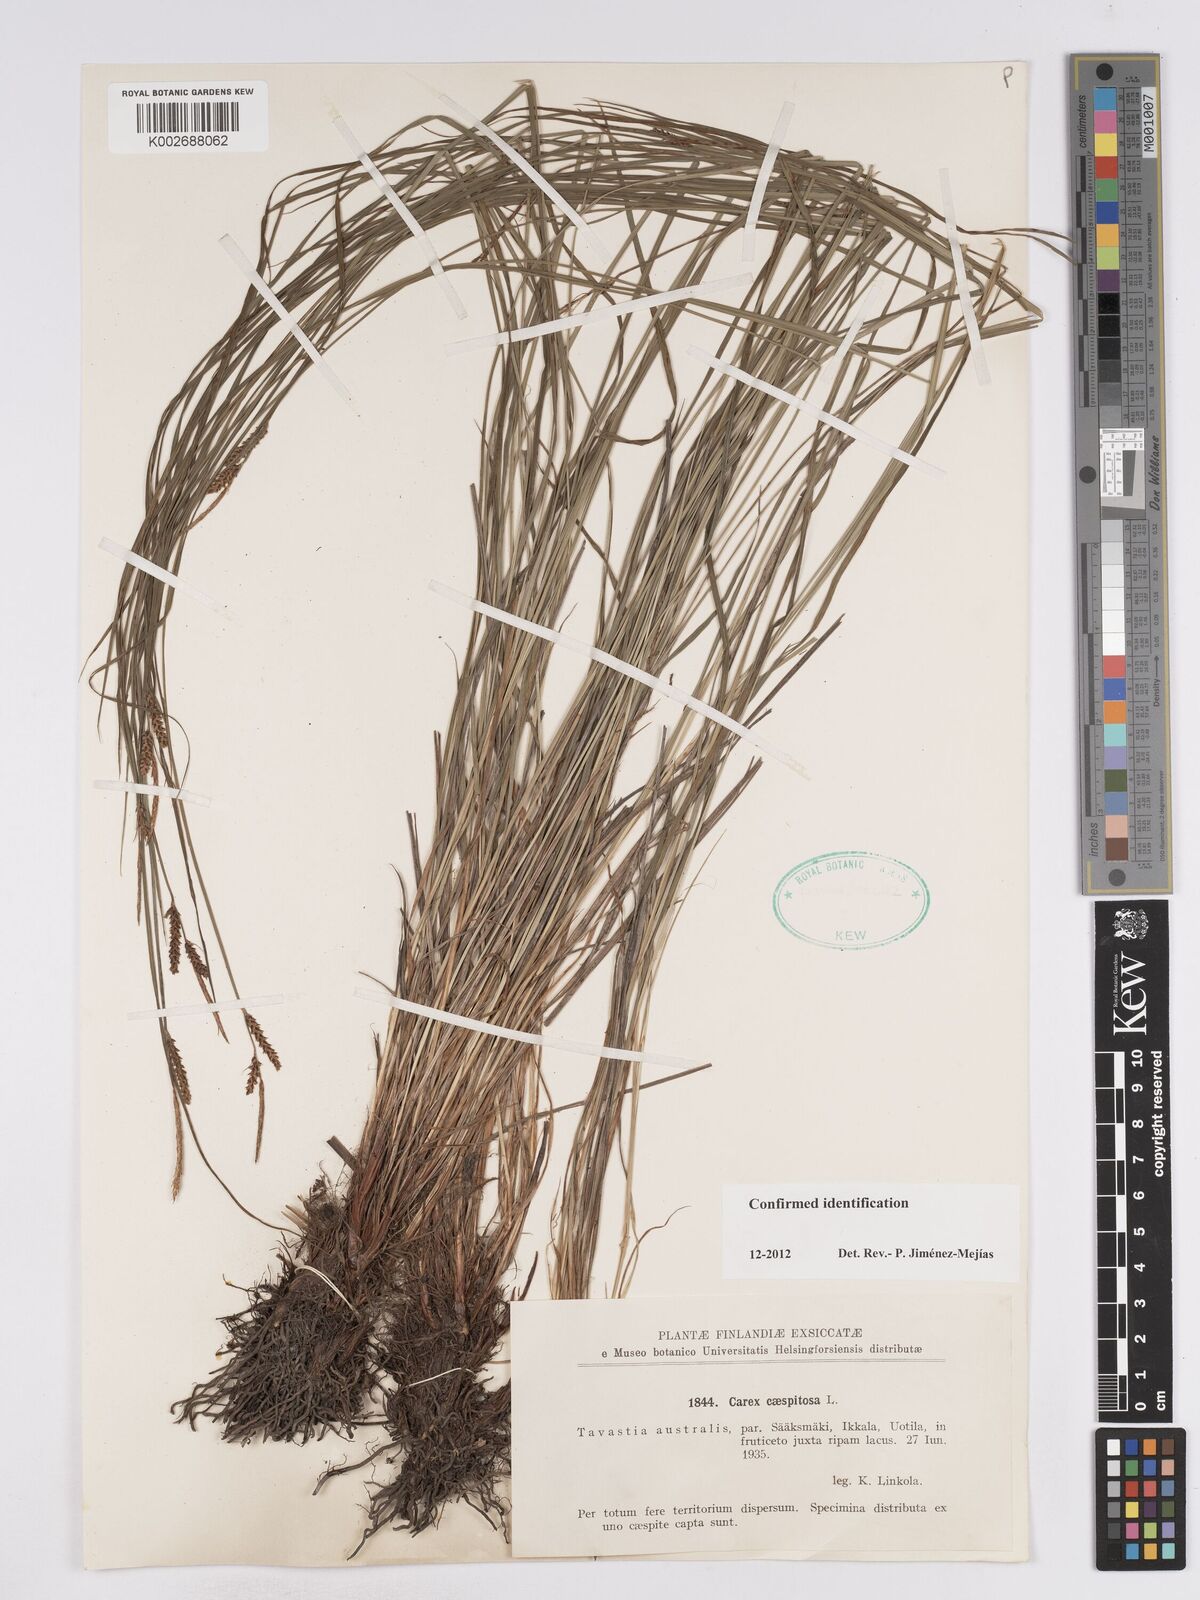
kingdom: Plantae
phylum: Tracheophyta
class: Liliopsida
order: Poales
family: Cyperaceae
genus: Carex
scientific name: Carex cespitosa
